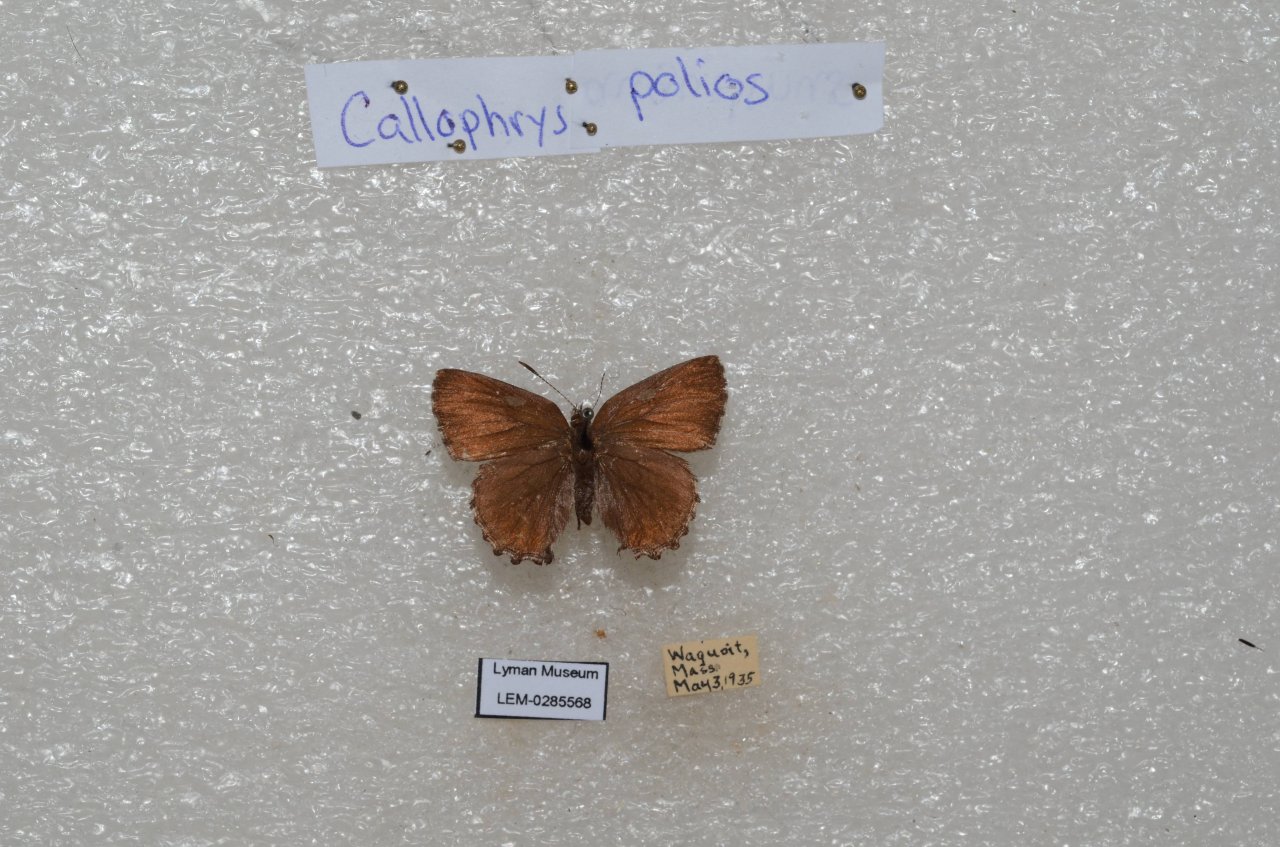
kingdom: Animalia
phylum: Arthropoda
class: Insecta
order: Lepidoptera
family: Lycaenidae
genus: Callophrys
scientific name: Callophrys polios
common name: Hoary Elfin
